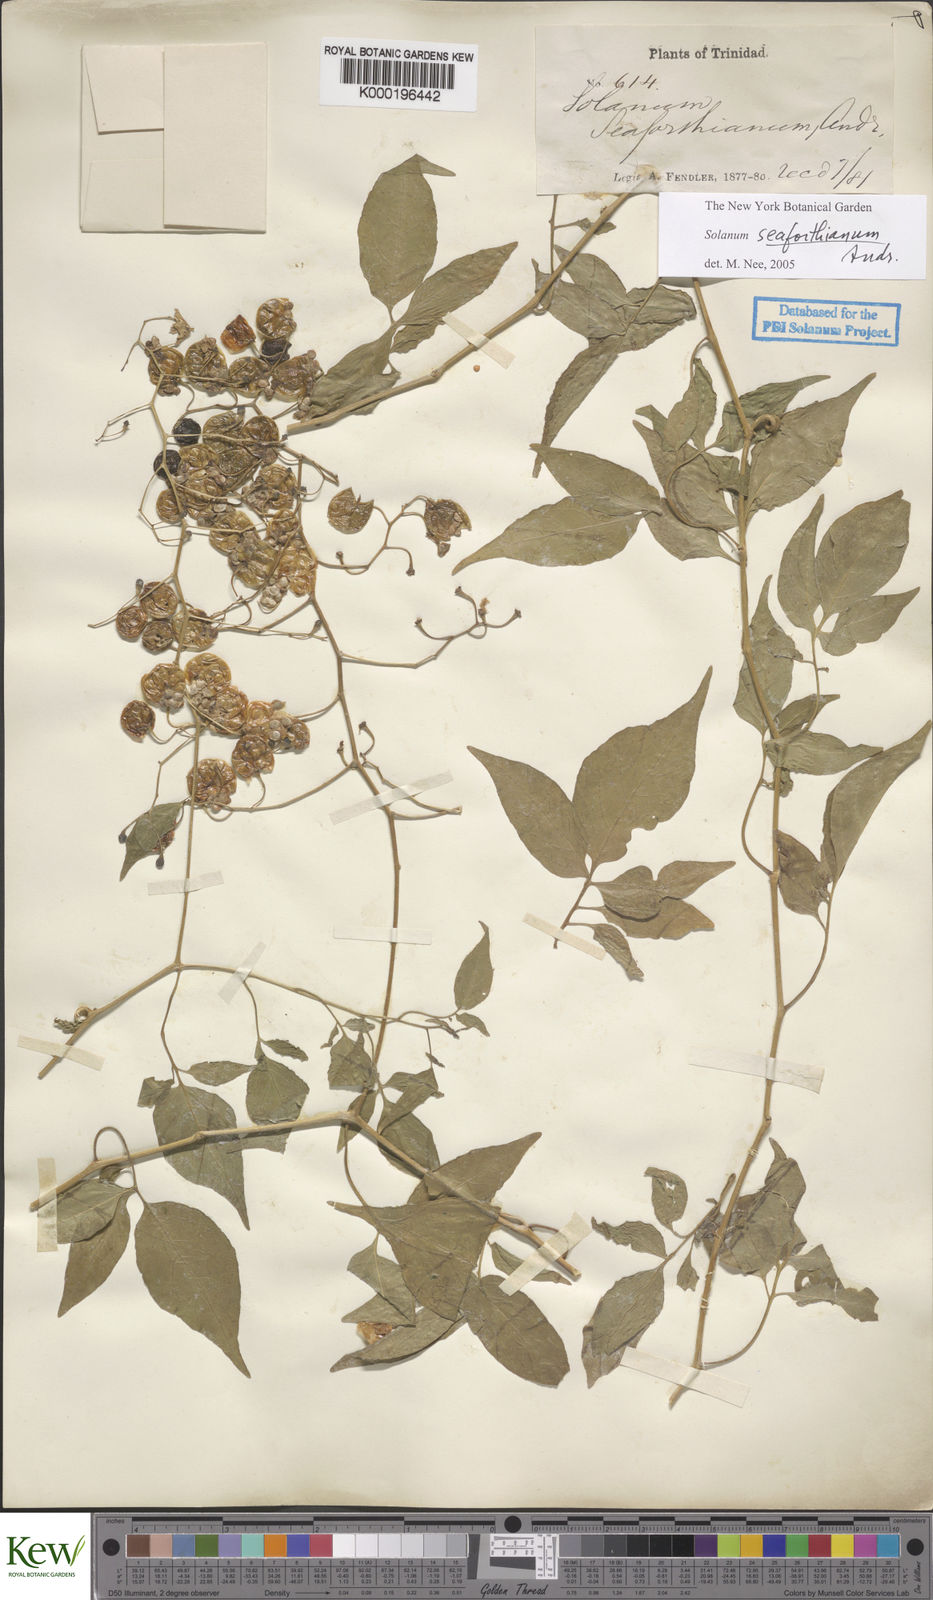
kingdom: Plantae
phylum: Tracheophyta
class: Magnoliopsida
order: Solanales
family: Solanaceae
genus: Solanum
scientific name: Solanum seaforthianum
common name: Brazilian nightshade
